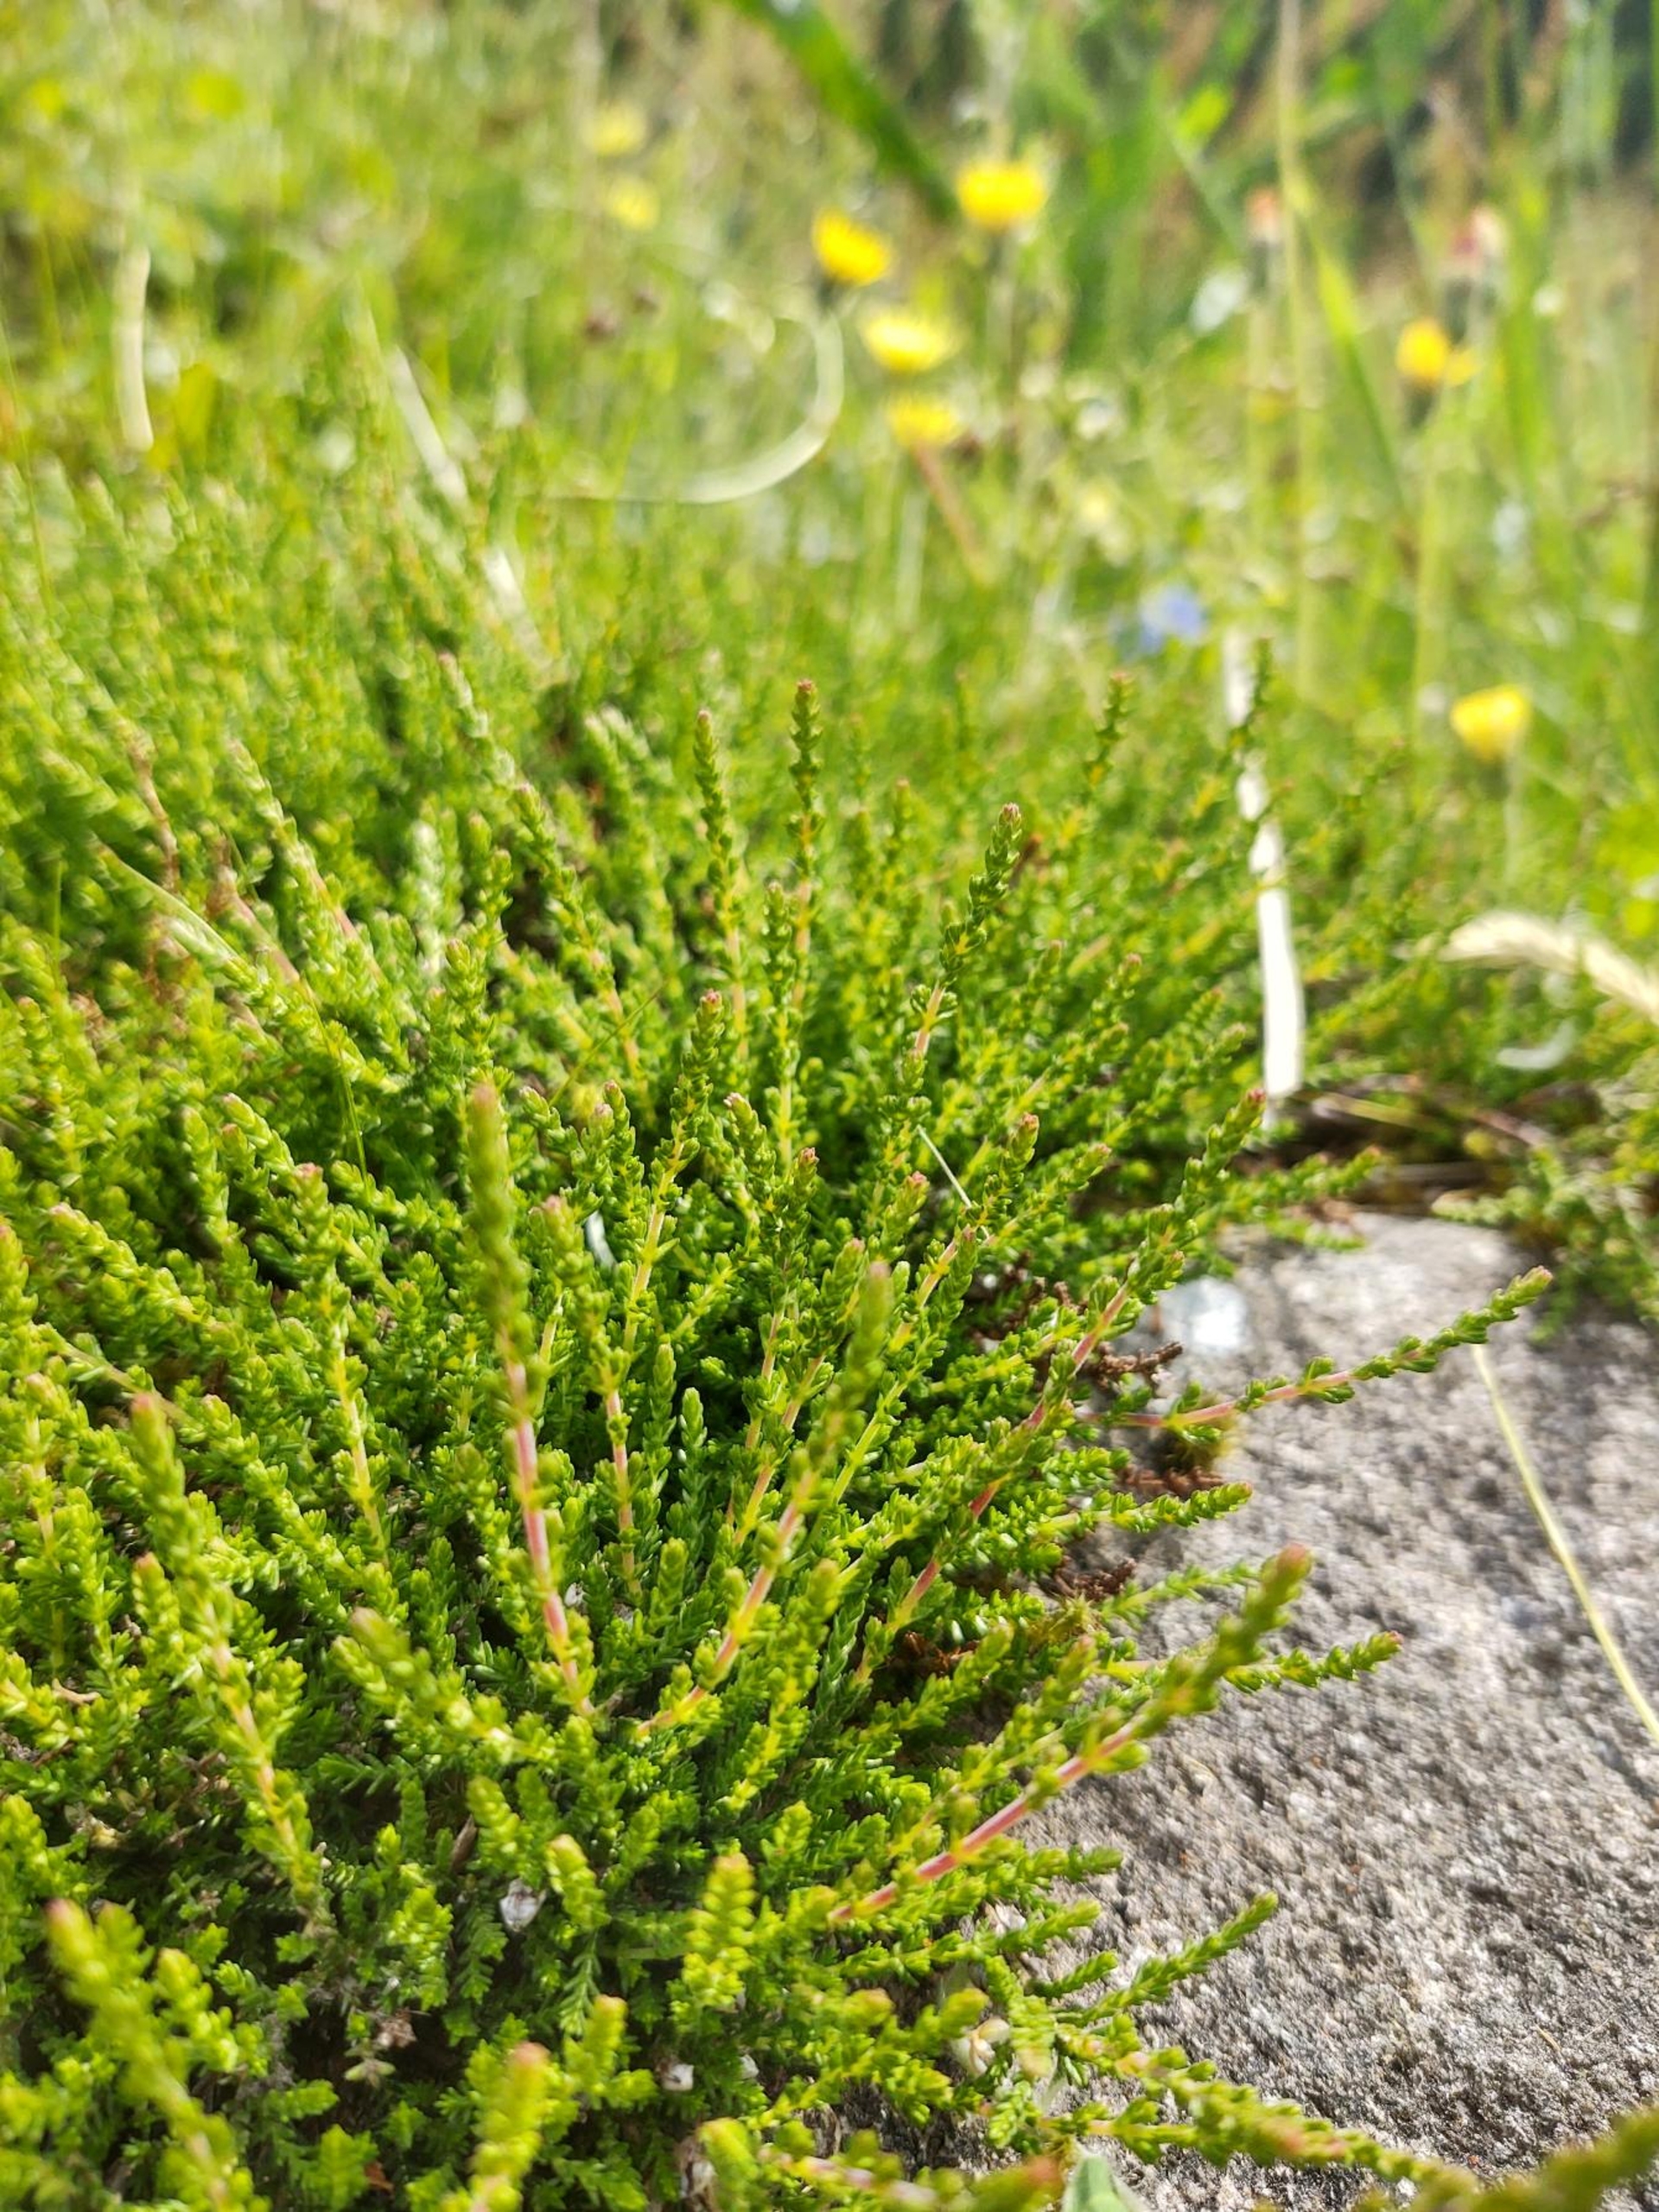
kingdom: Plantae
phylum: Tracheophyta
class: Magnoliopsida
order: Ericales
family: Ericaceae
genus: Calluna
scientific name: Calluna vulgaris
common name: Hedelyng
